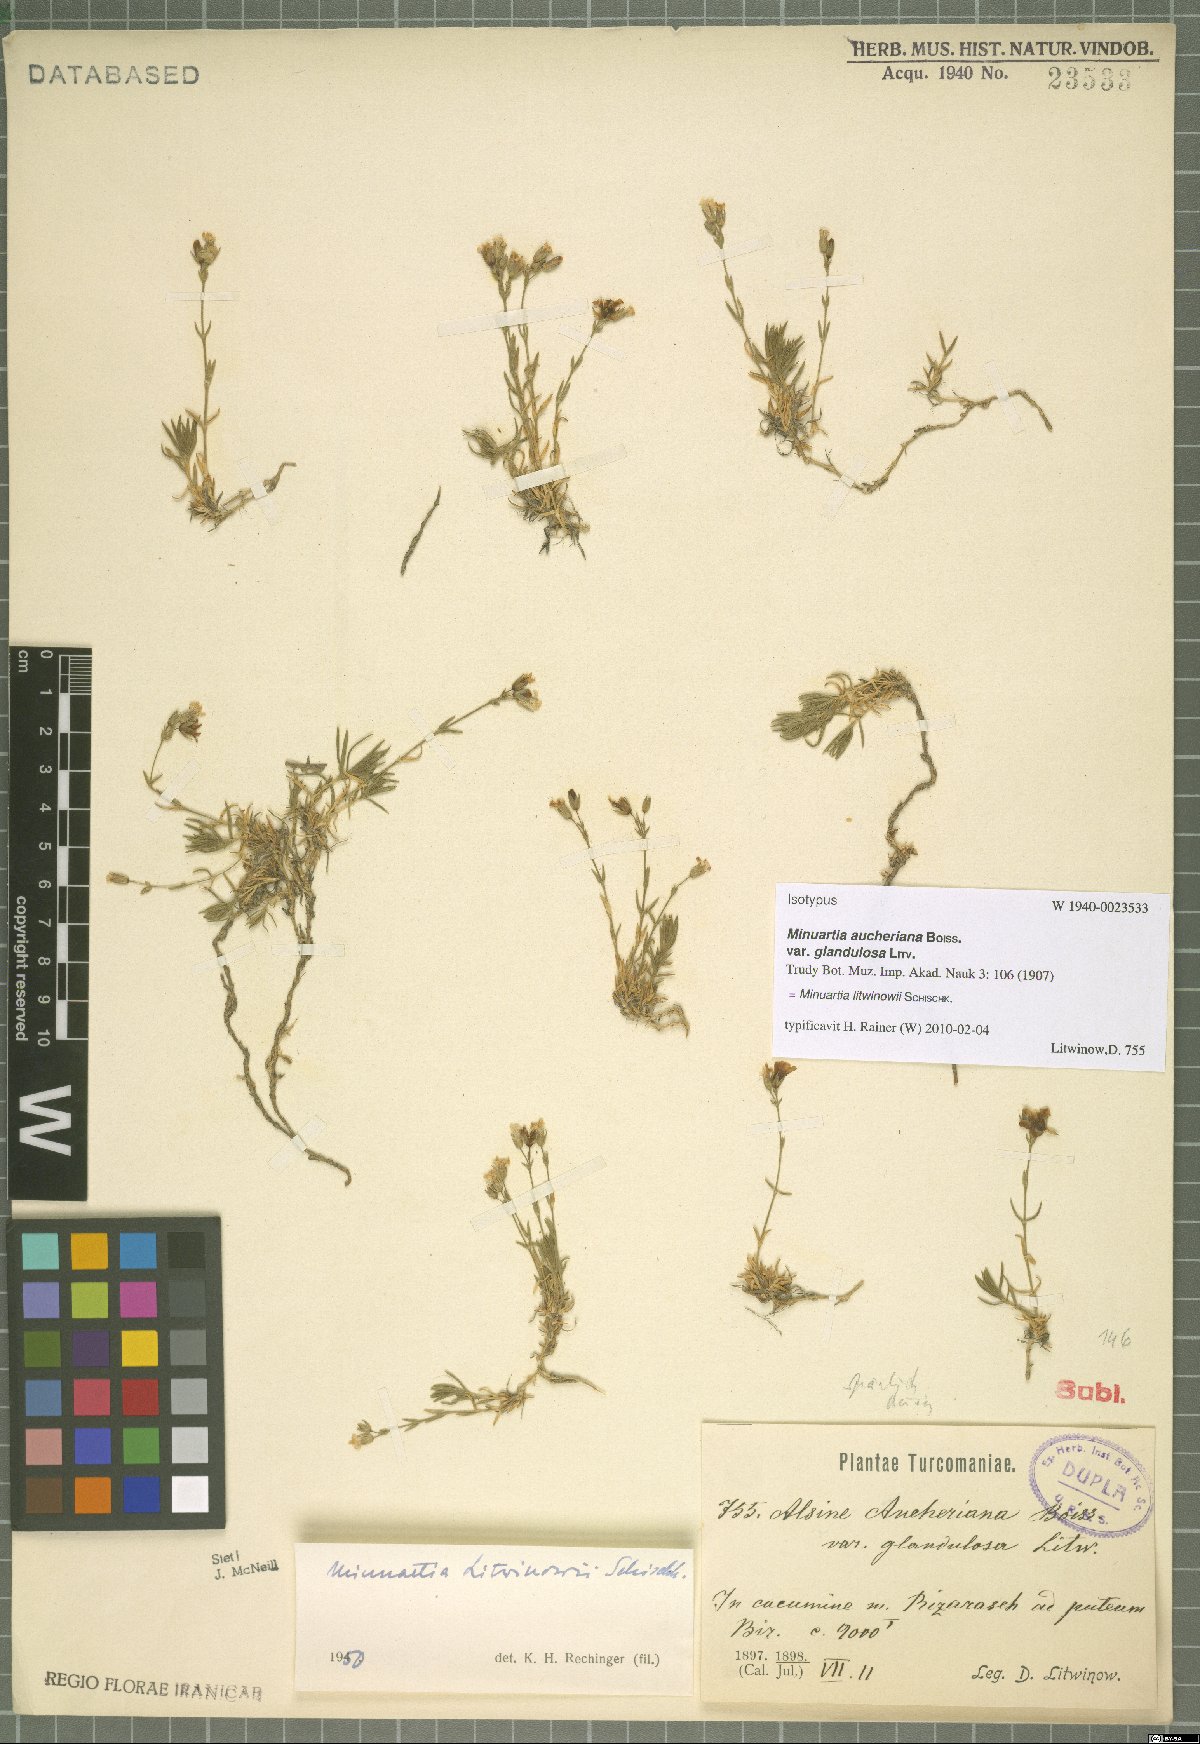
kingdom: Plantae
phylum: Tracheophyta
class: Magnoliopsida
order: Caryophyllales
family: Caryophyllaceae
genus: Sabulina
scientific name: Sabulina litwinowii
